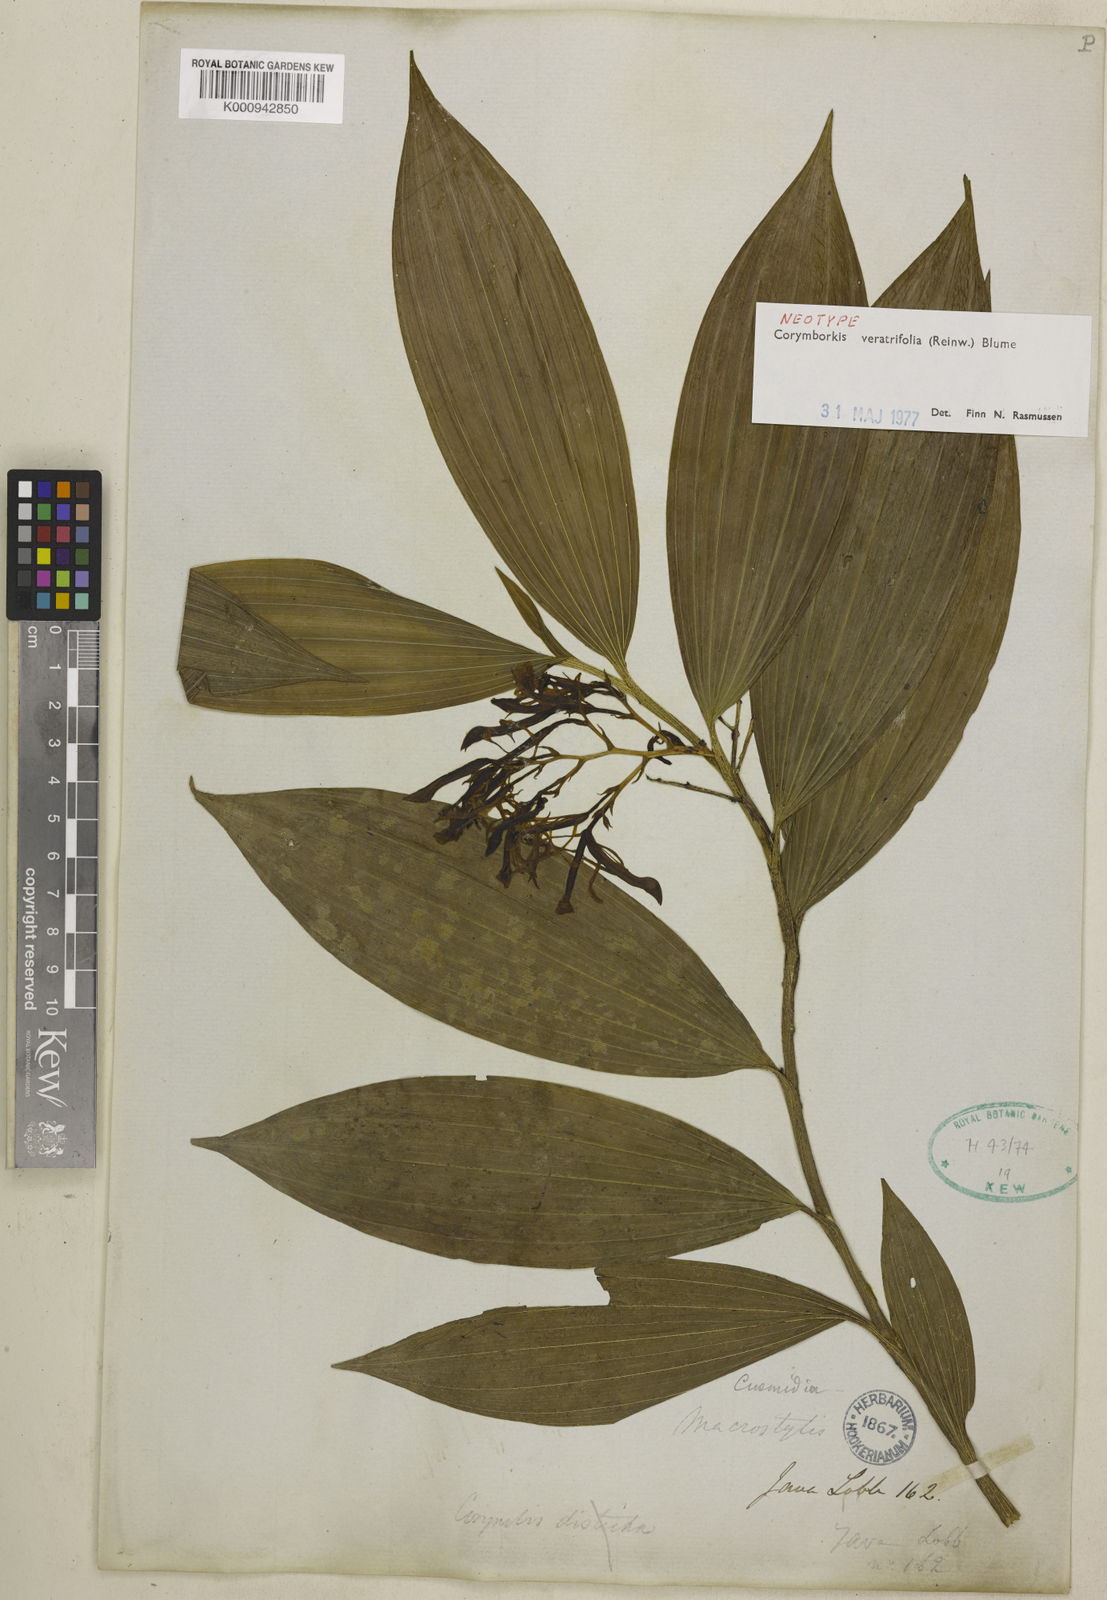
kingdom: Plantae
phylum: Tracheophyta
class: Liliopsida
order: Asparagales
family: Orchidaceae
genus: Corymborkis
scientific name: Corymborkis veratrifolia
